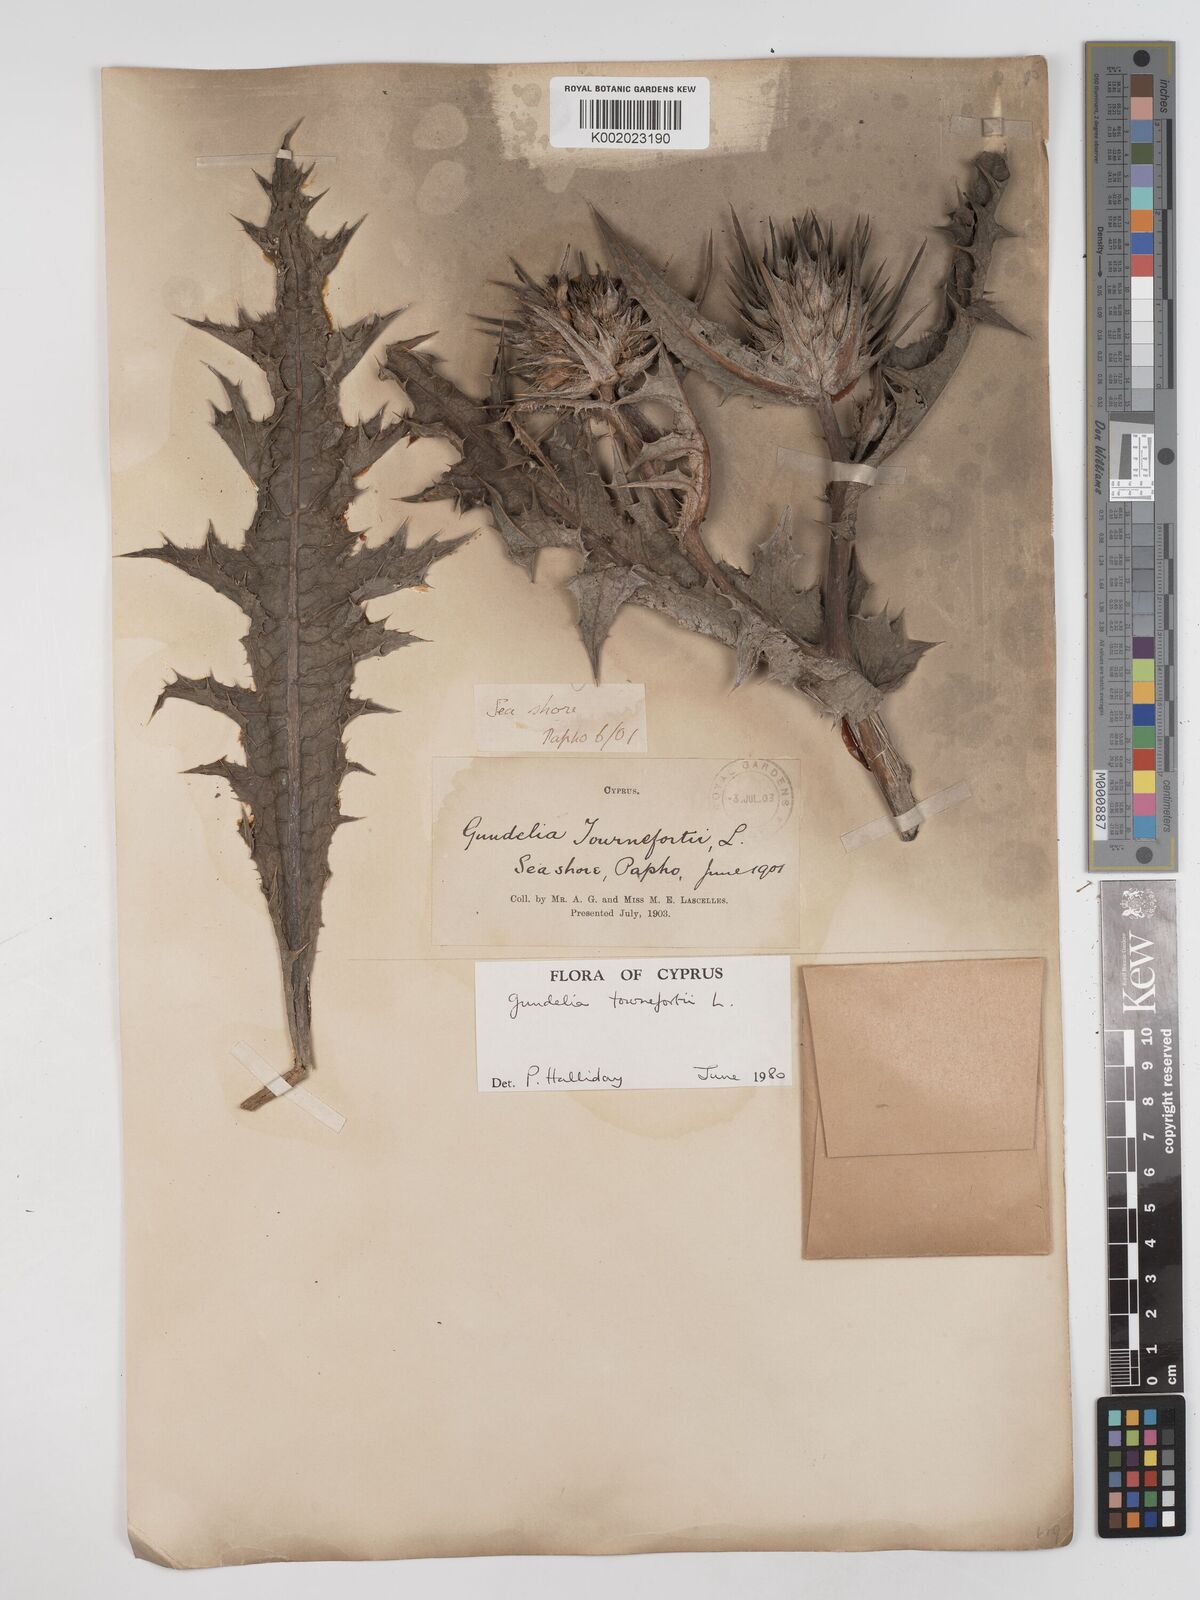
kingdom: Plantae
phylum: Tracheophyta
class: Magnoliopsida
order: Asterales
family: Asteraceae
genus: Gundelia
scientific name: Gundelia tournefortii
